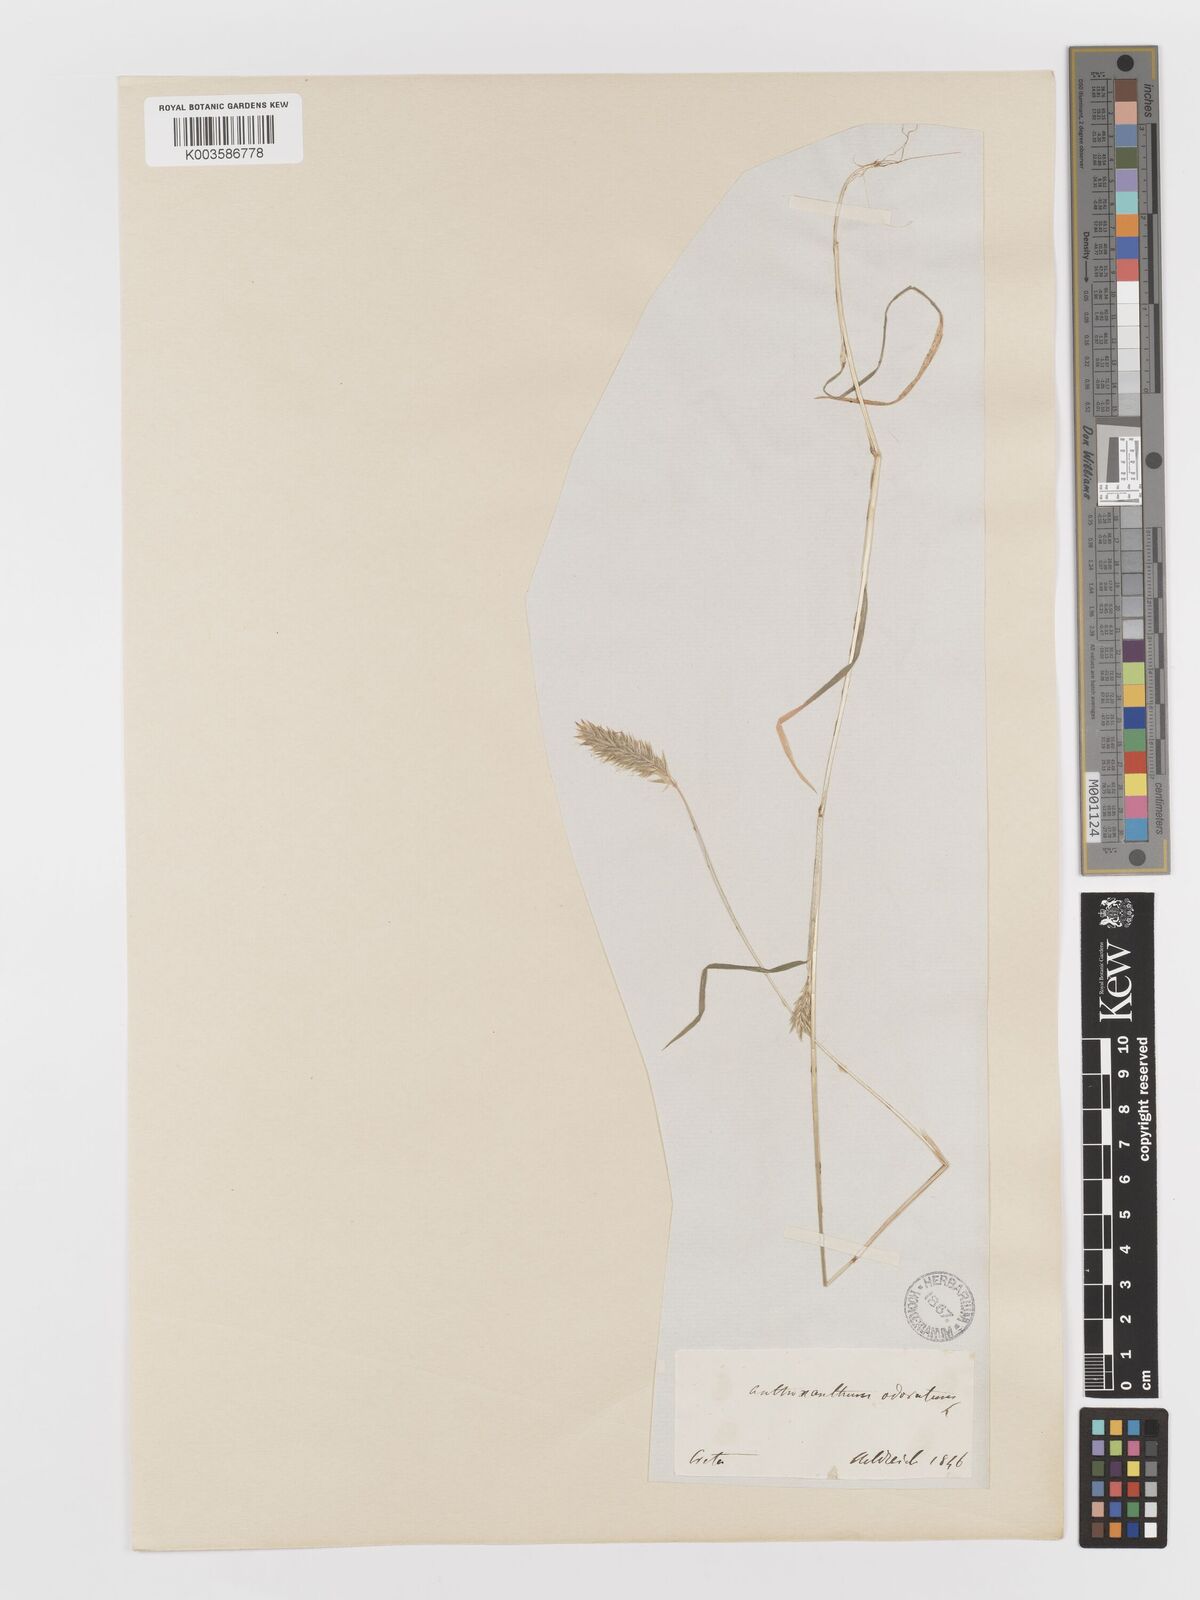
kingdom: Plantae
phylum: Tracheophyta
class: Liliopsida
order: Poales
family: Poaceae
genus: Anthoxanthum
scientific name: Anthoxanthum odoratum
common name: Sweet vernalgrass
